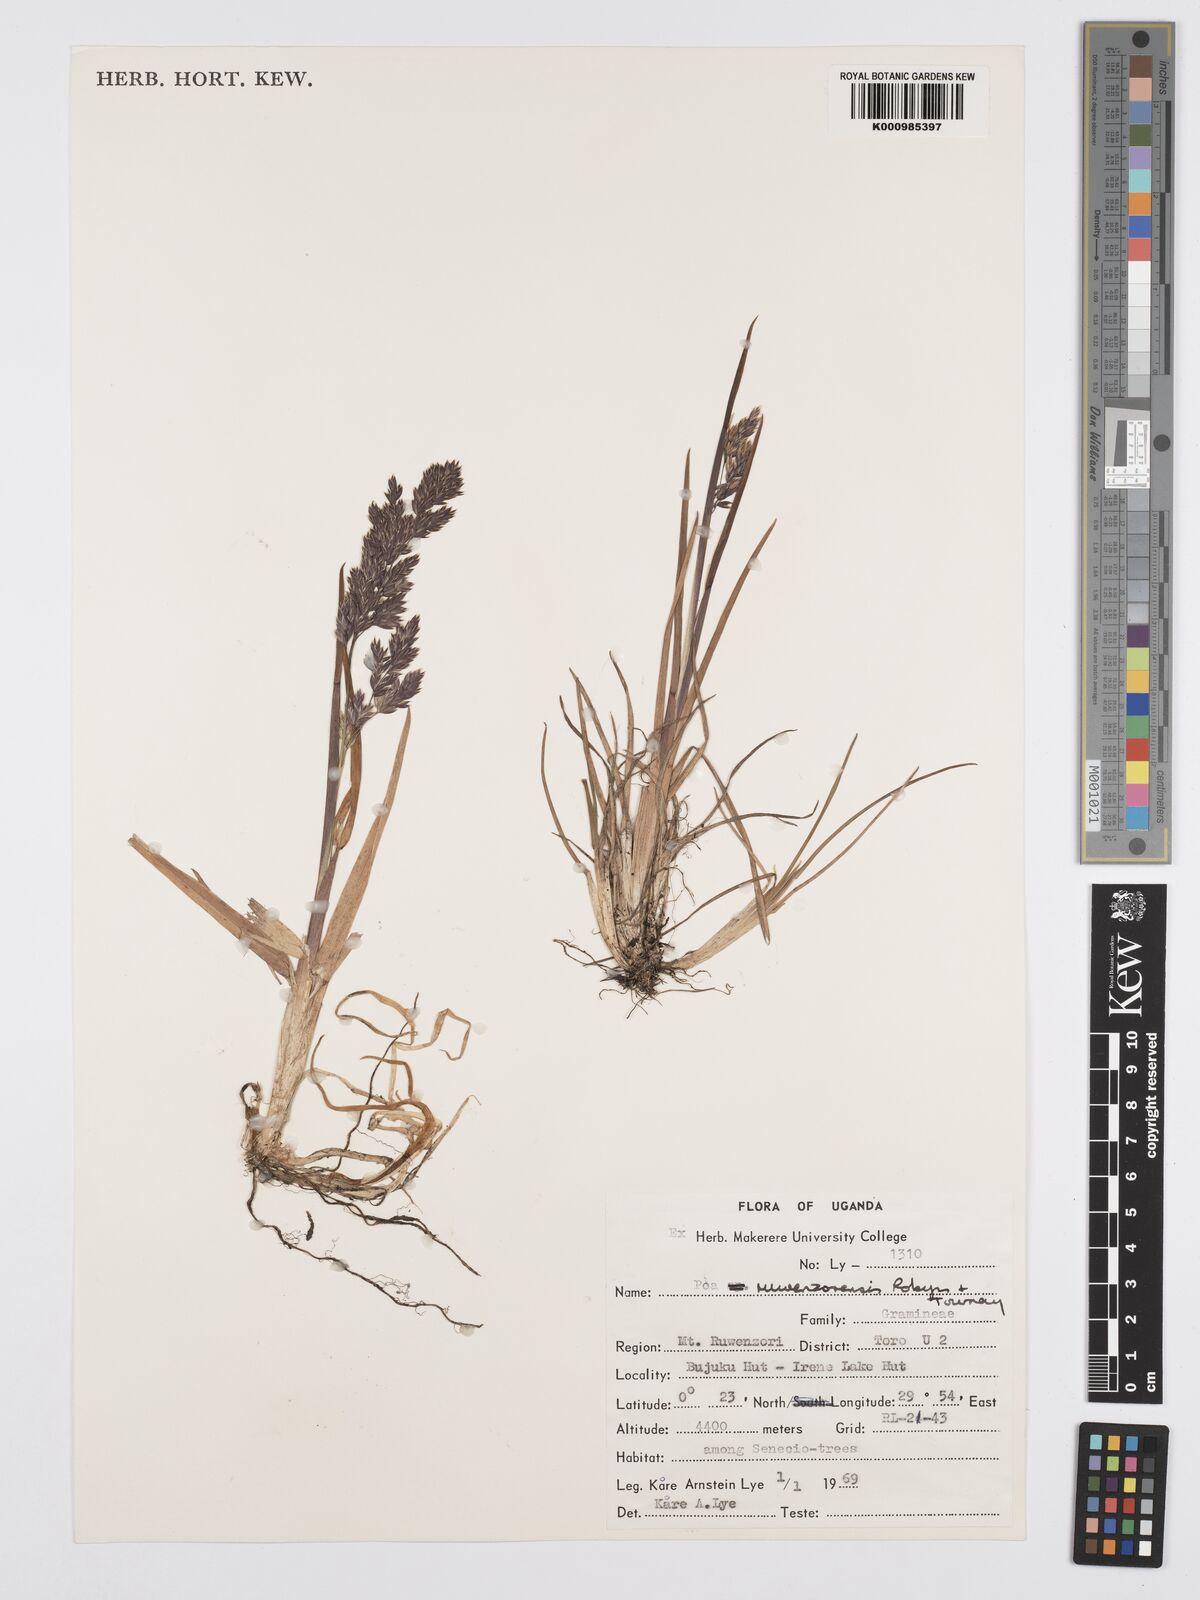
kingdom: Plantae
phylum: Tracheophyta
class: Liliopsida
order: Poales
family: Poaceae
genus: Poa
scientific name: Poa ruwenzoriensis
